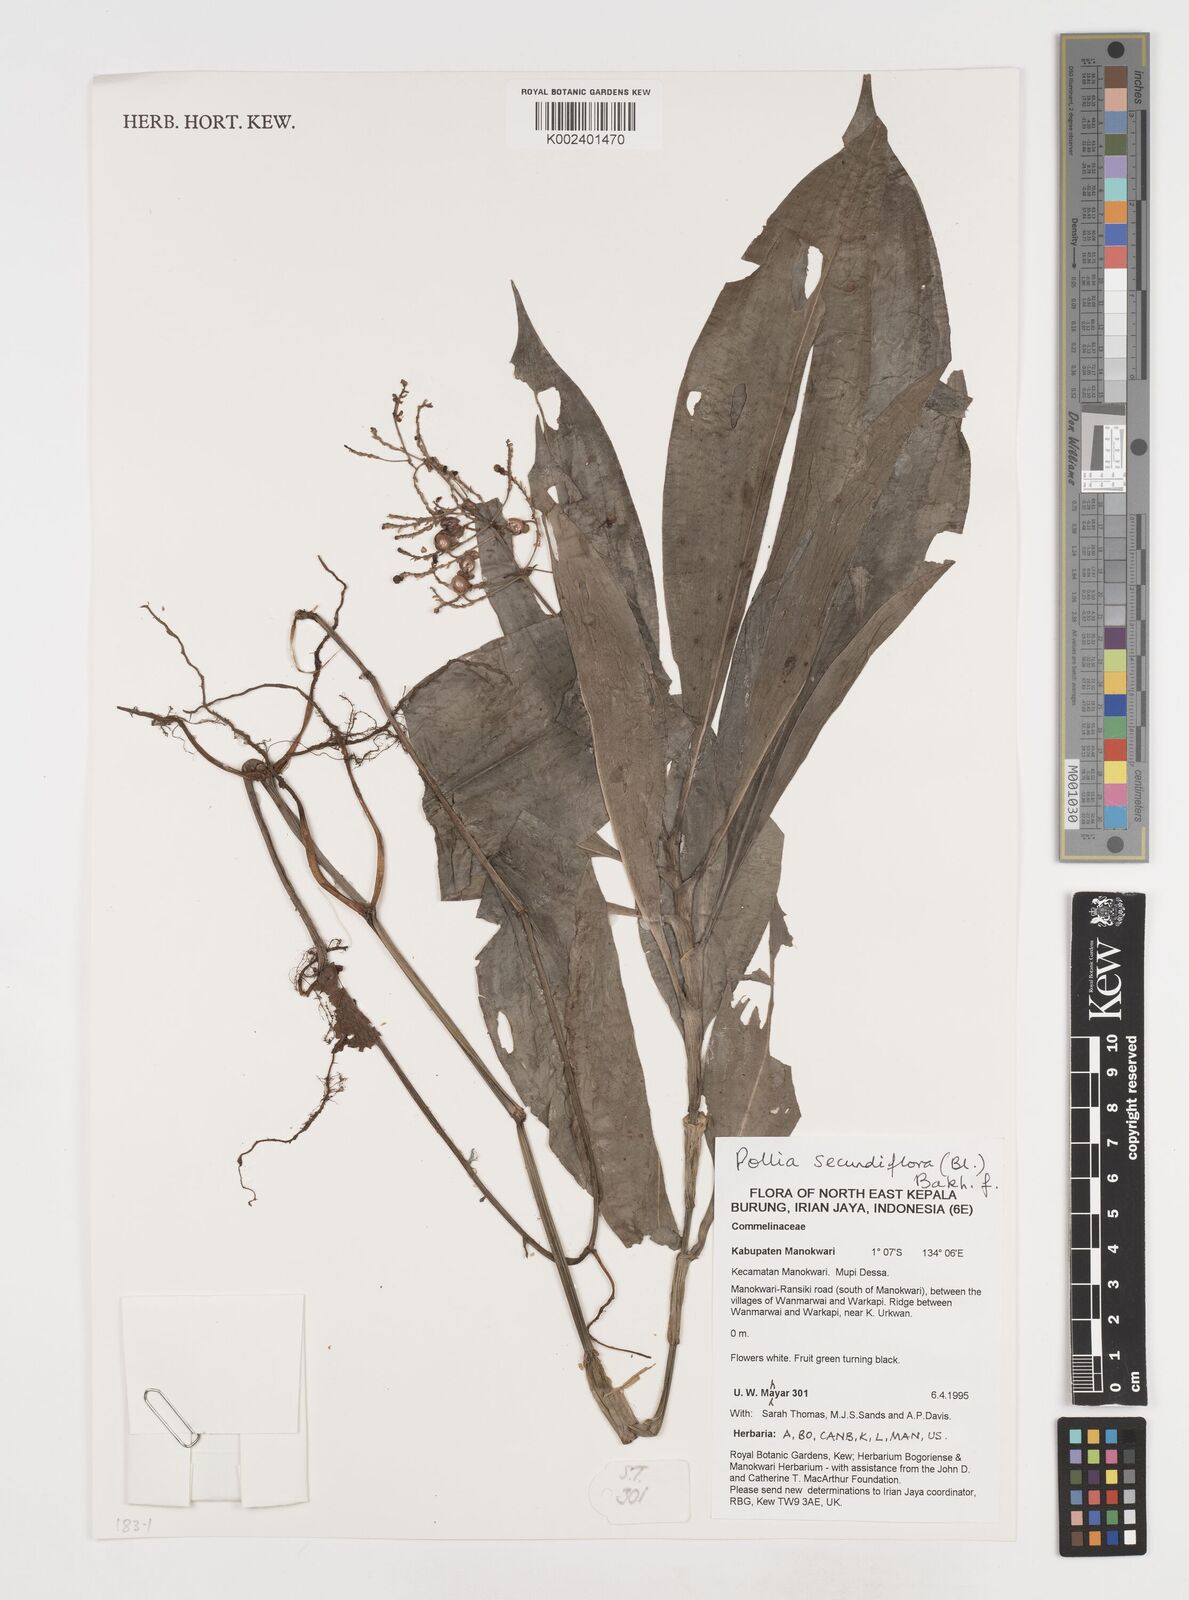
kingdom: Plantae
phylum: Tracheophyta
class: Liliopsida
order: Commelinales
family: Commelinaceae
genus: Pollia
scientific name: Pollia secundiflora
